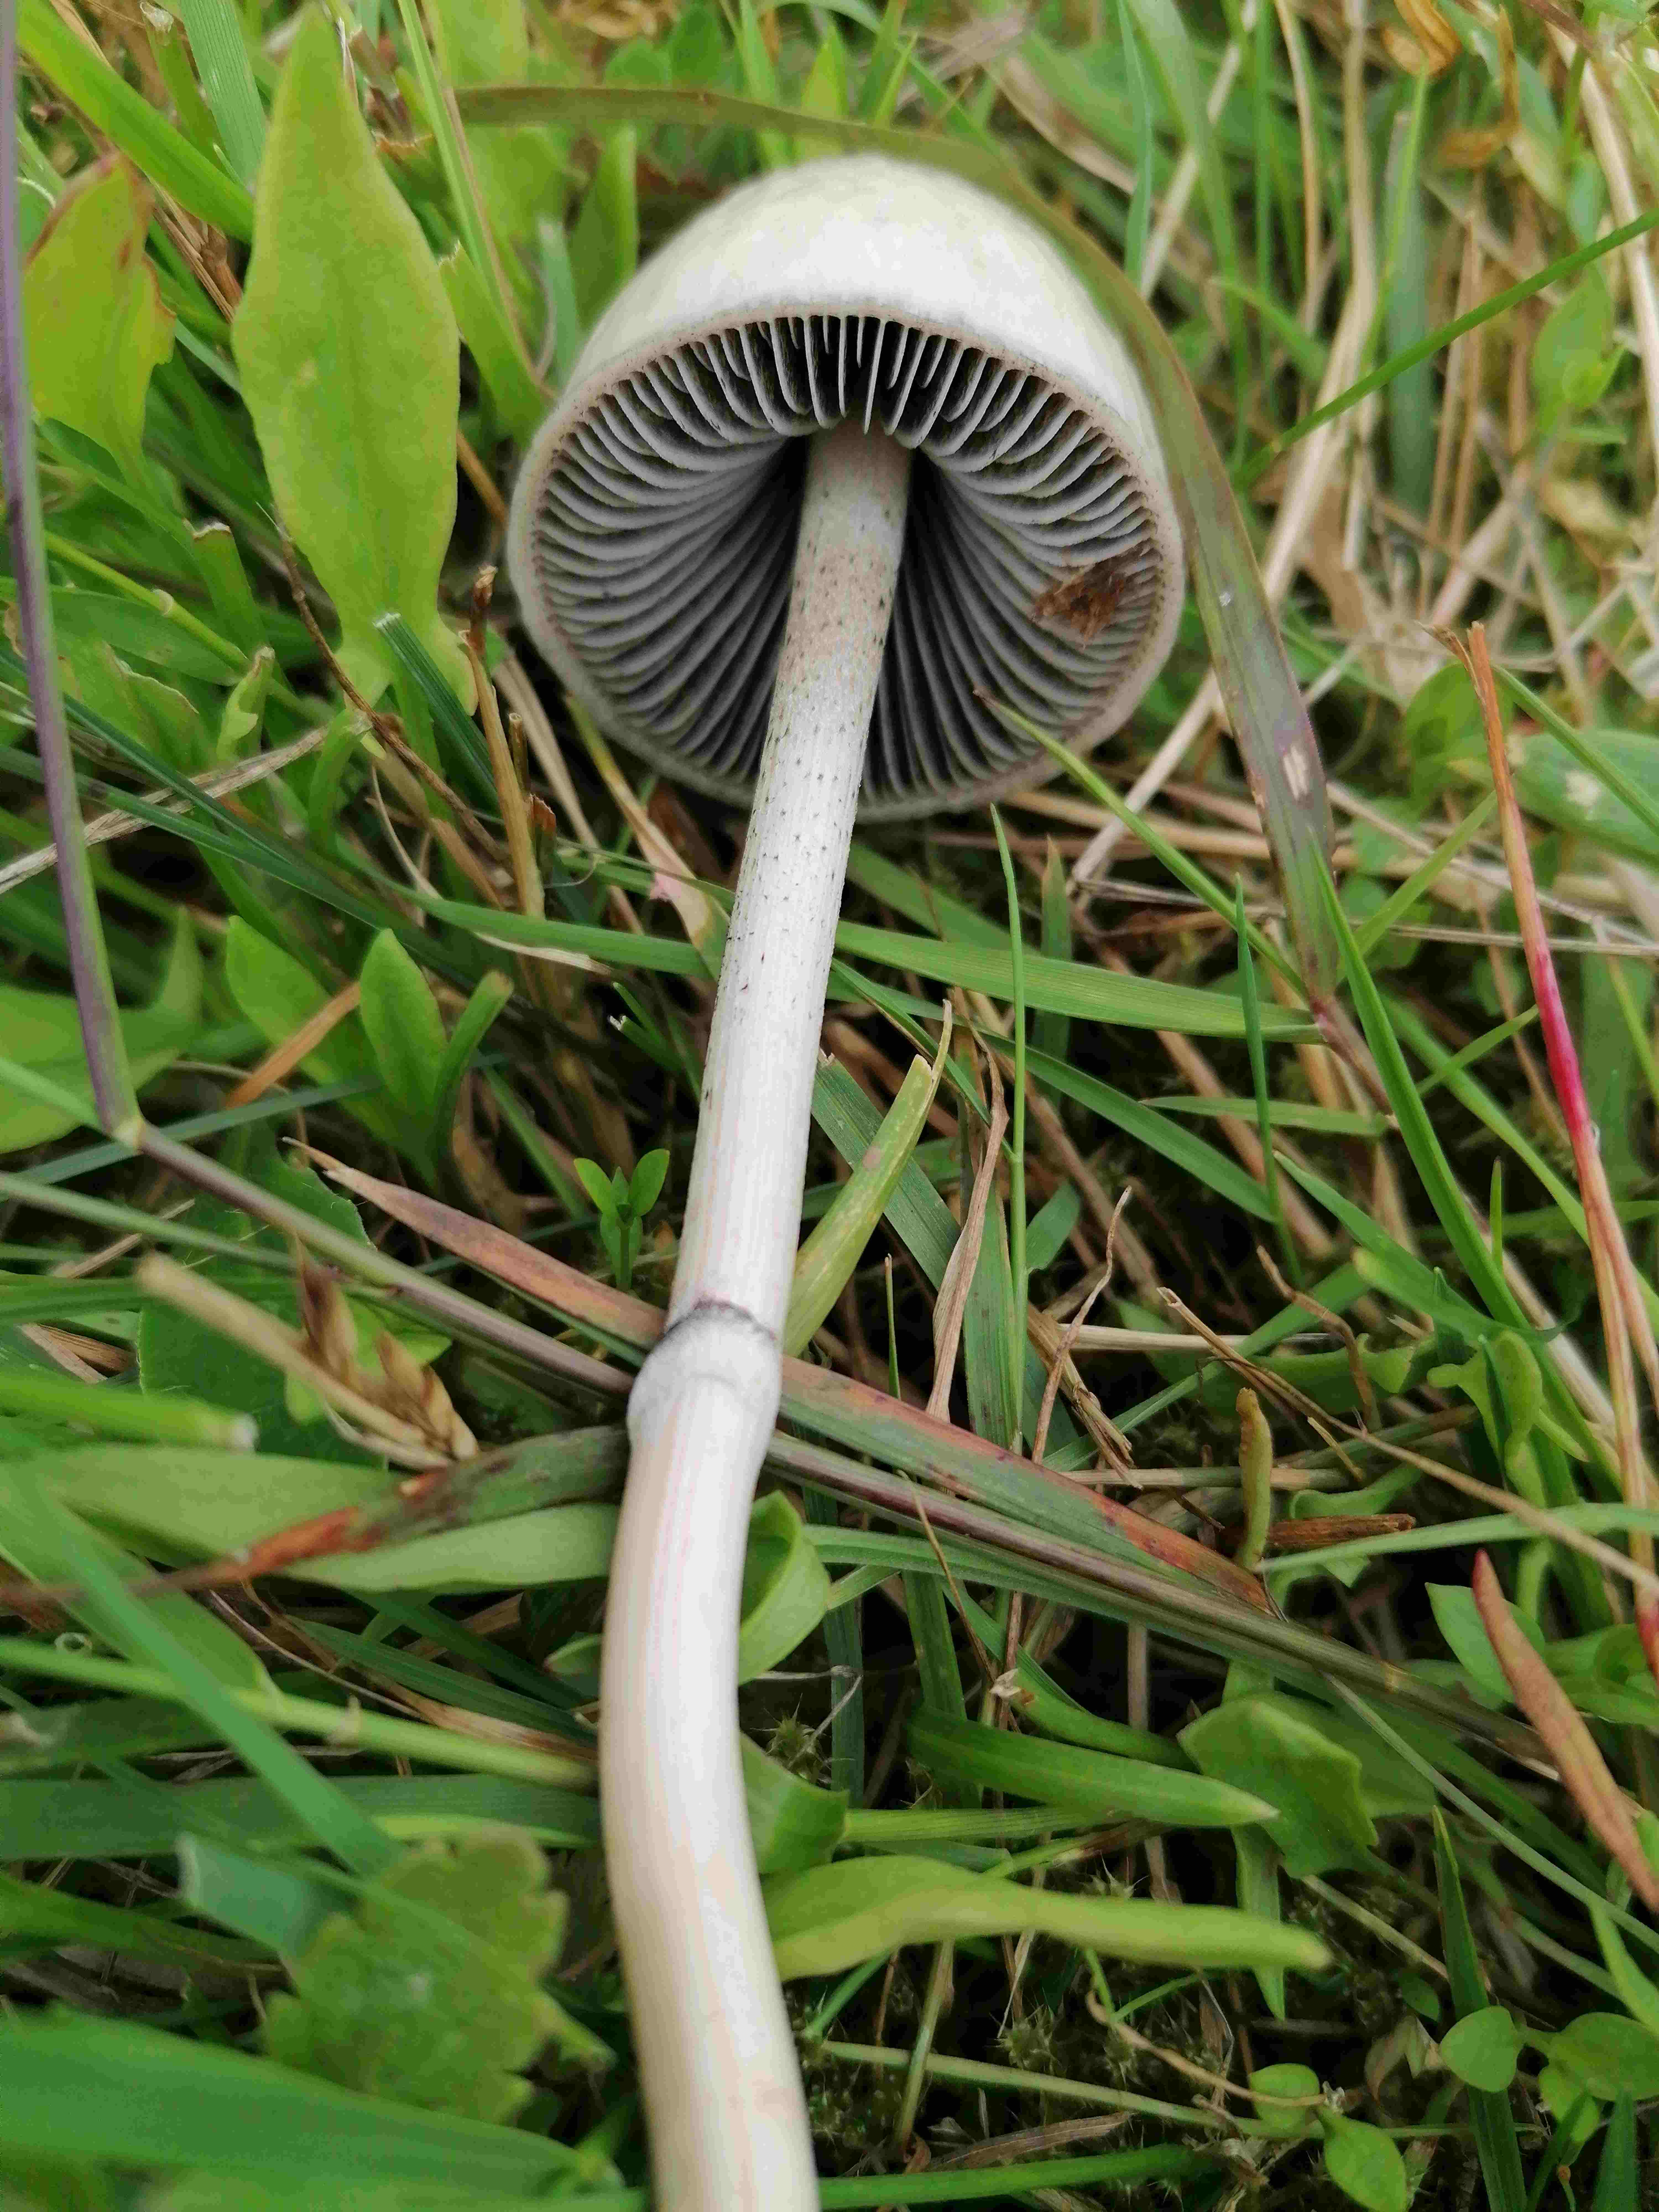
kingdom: Fungi
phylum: Basidiomycota
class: Agaricomycetes
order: Agaricales
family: Bolbitiaceae
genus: Panaeolus
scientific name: Panaeolus semiovatus
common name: ring-glanshat
